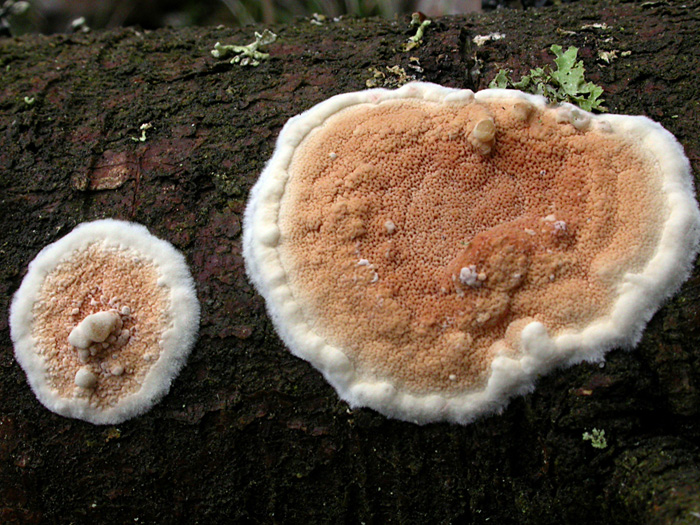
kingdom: Fungi
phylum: Basidiomycota
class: Agaricomycetes
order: Polyporales
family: Irpicaceae
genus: Meruliopsis
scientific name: Meruliopsis taxicola
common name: purpurbrun foldporesvamp
